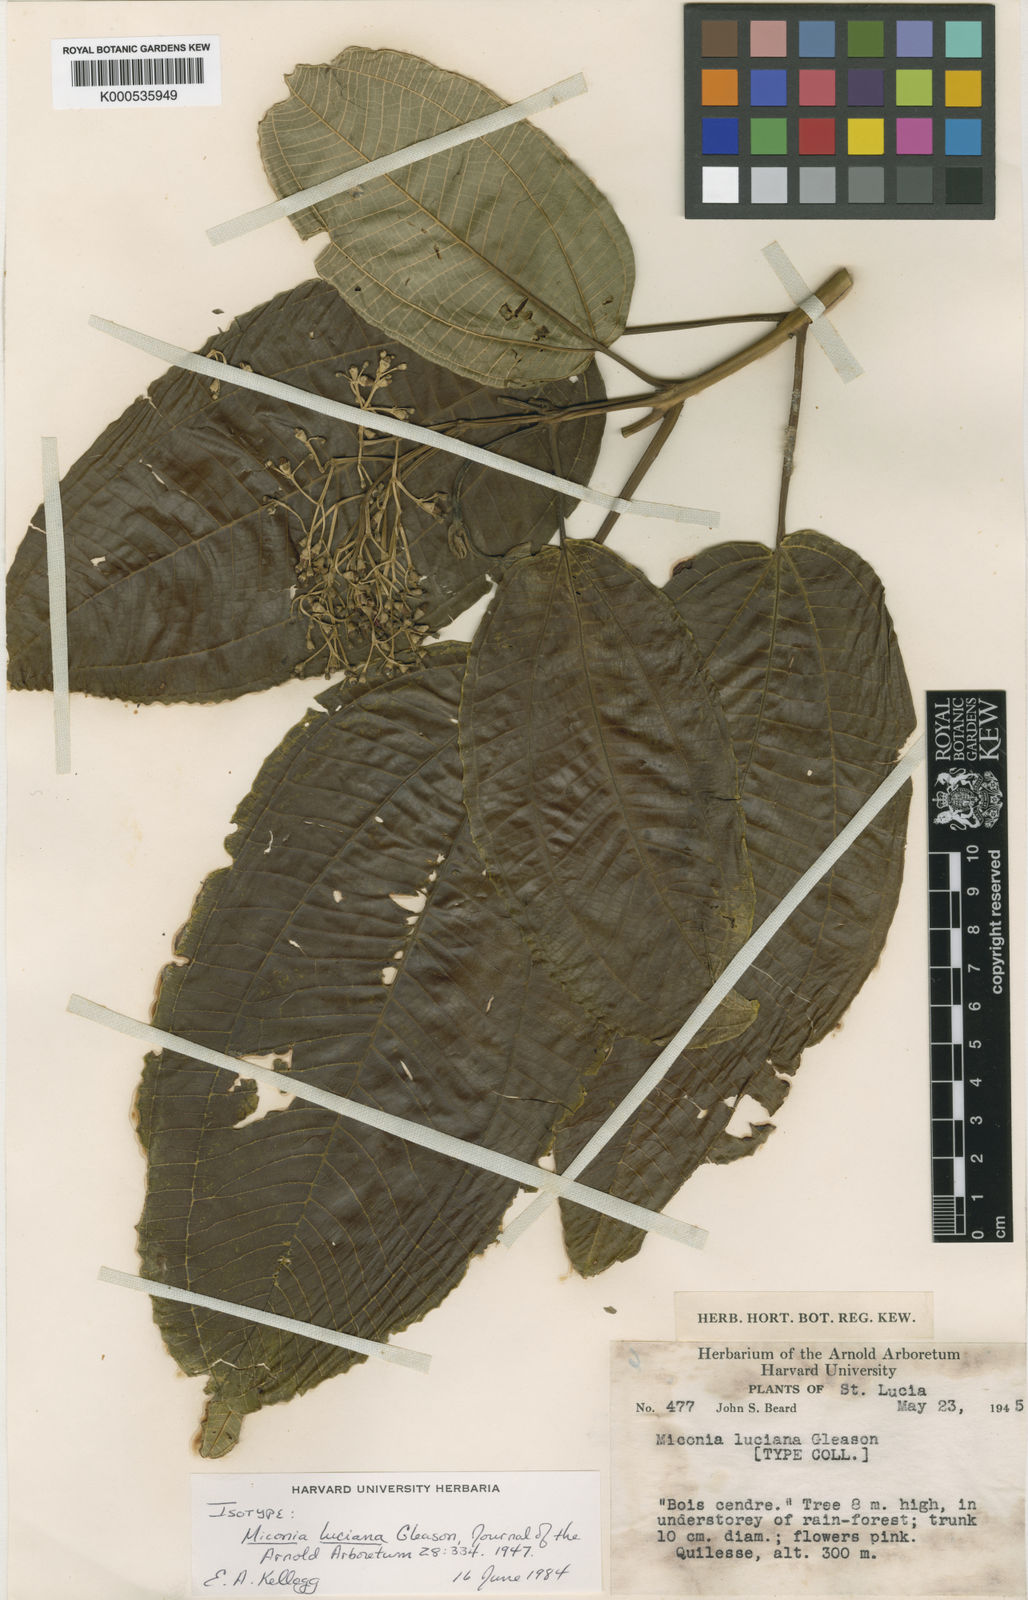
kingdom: Plantae
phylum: Tracheophyta
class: Magnoliopsida
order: Myrtales
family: Melastomataceae
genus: Miconia
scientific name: Miconia luciana
